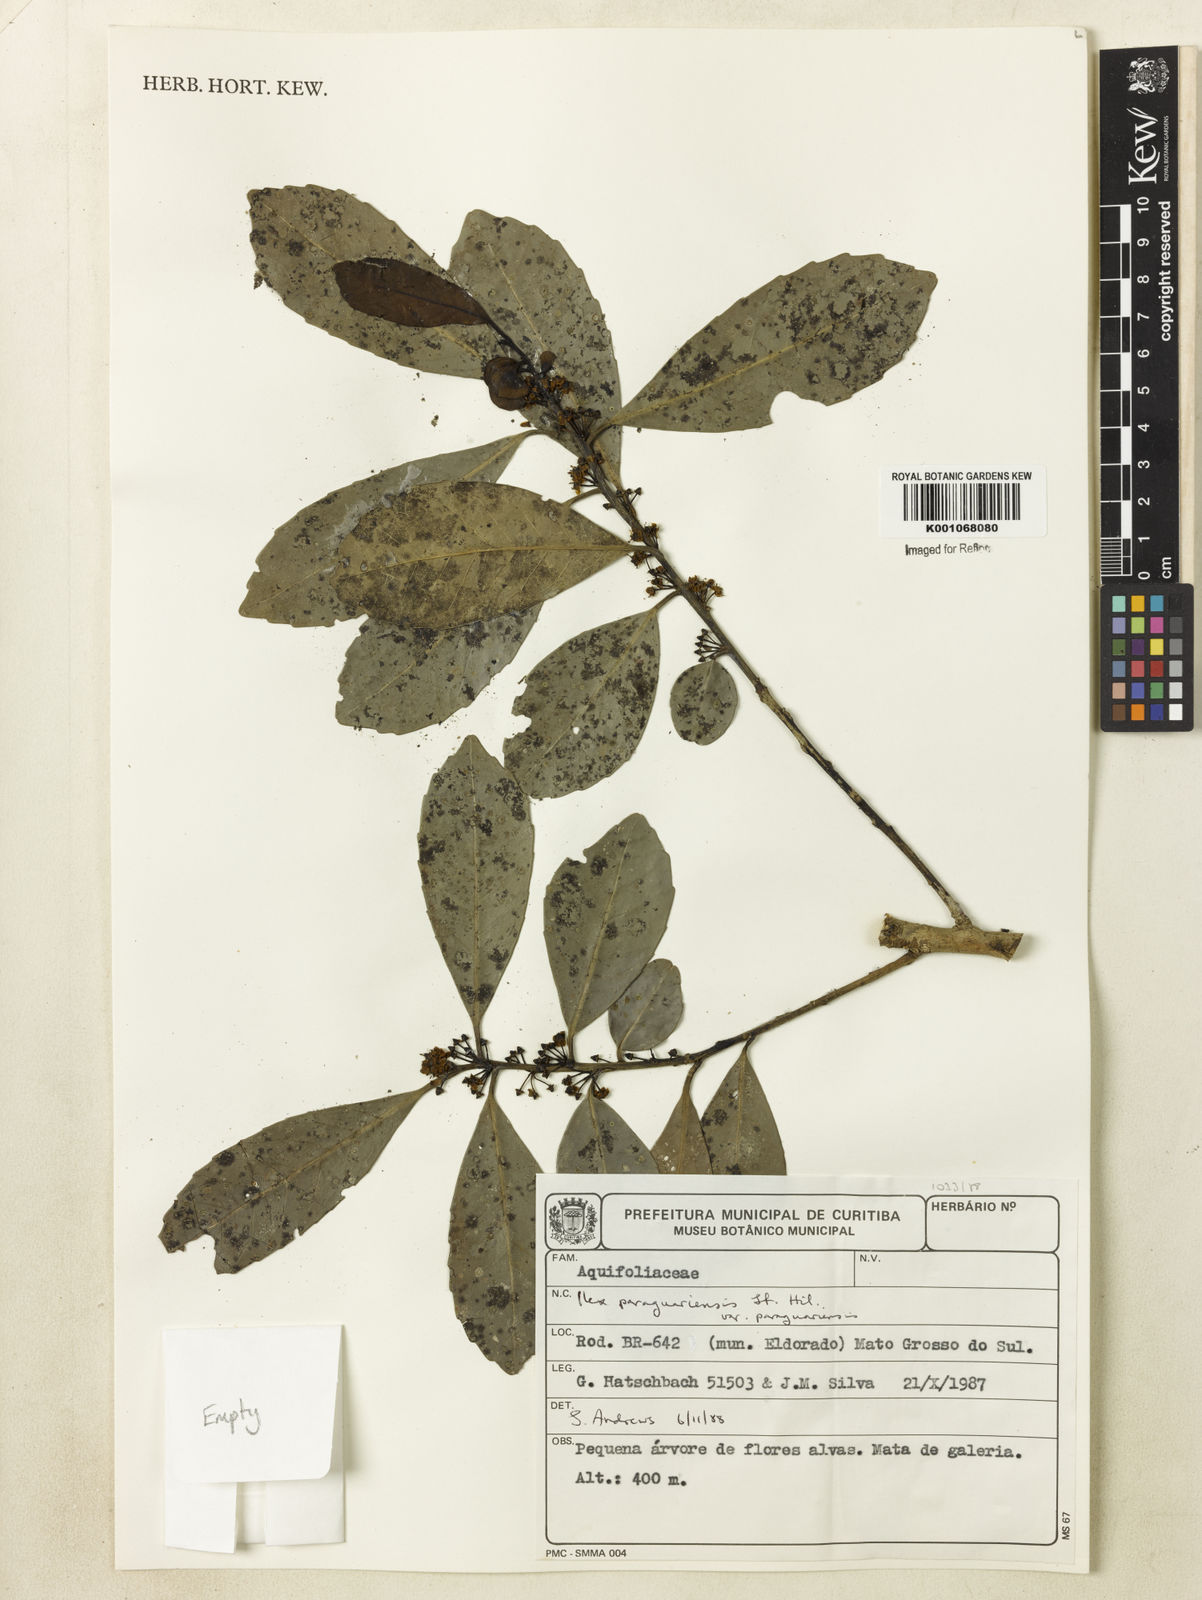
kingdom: Plantae
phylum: Tracheophyta
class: Magnoliopsida
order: Aquifoliales
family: Aquifoliaceae
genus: Ilex
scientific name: Ilex paraguariensis
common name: Paraguay tea
